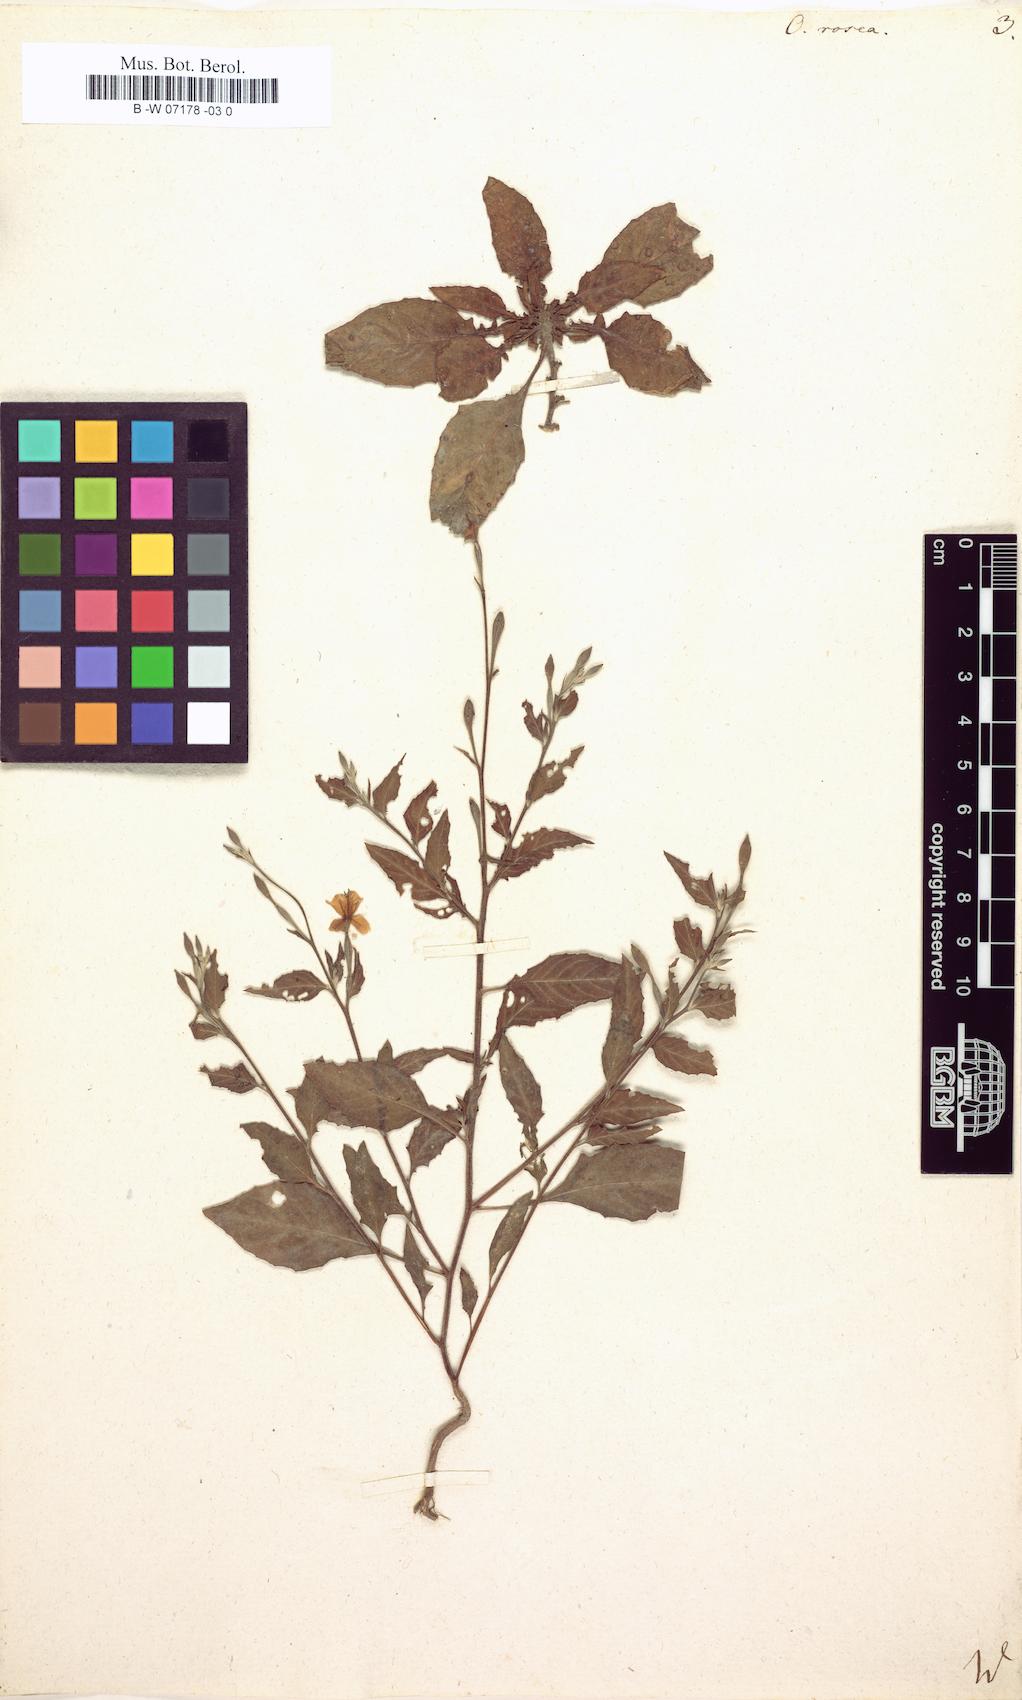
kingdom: Plantae
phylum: Tracheophyta
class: Magnoliopsida
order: Myrtales
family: Onagraceae
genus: Oenothera
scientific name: Oenothera rosea
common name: Rosy evening-primrose
